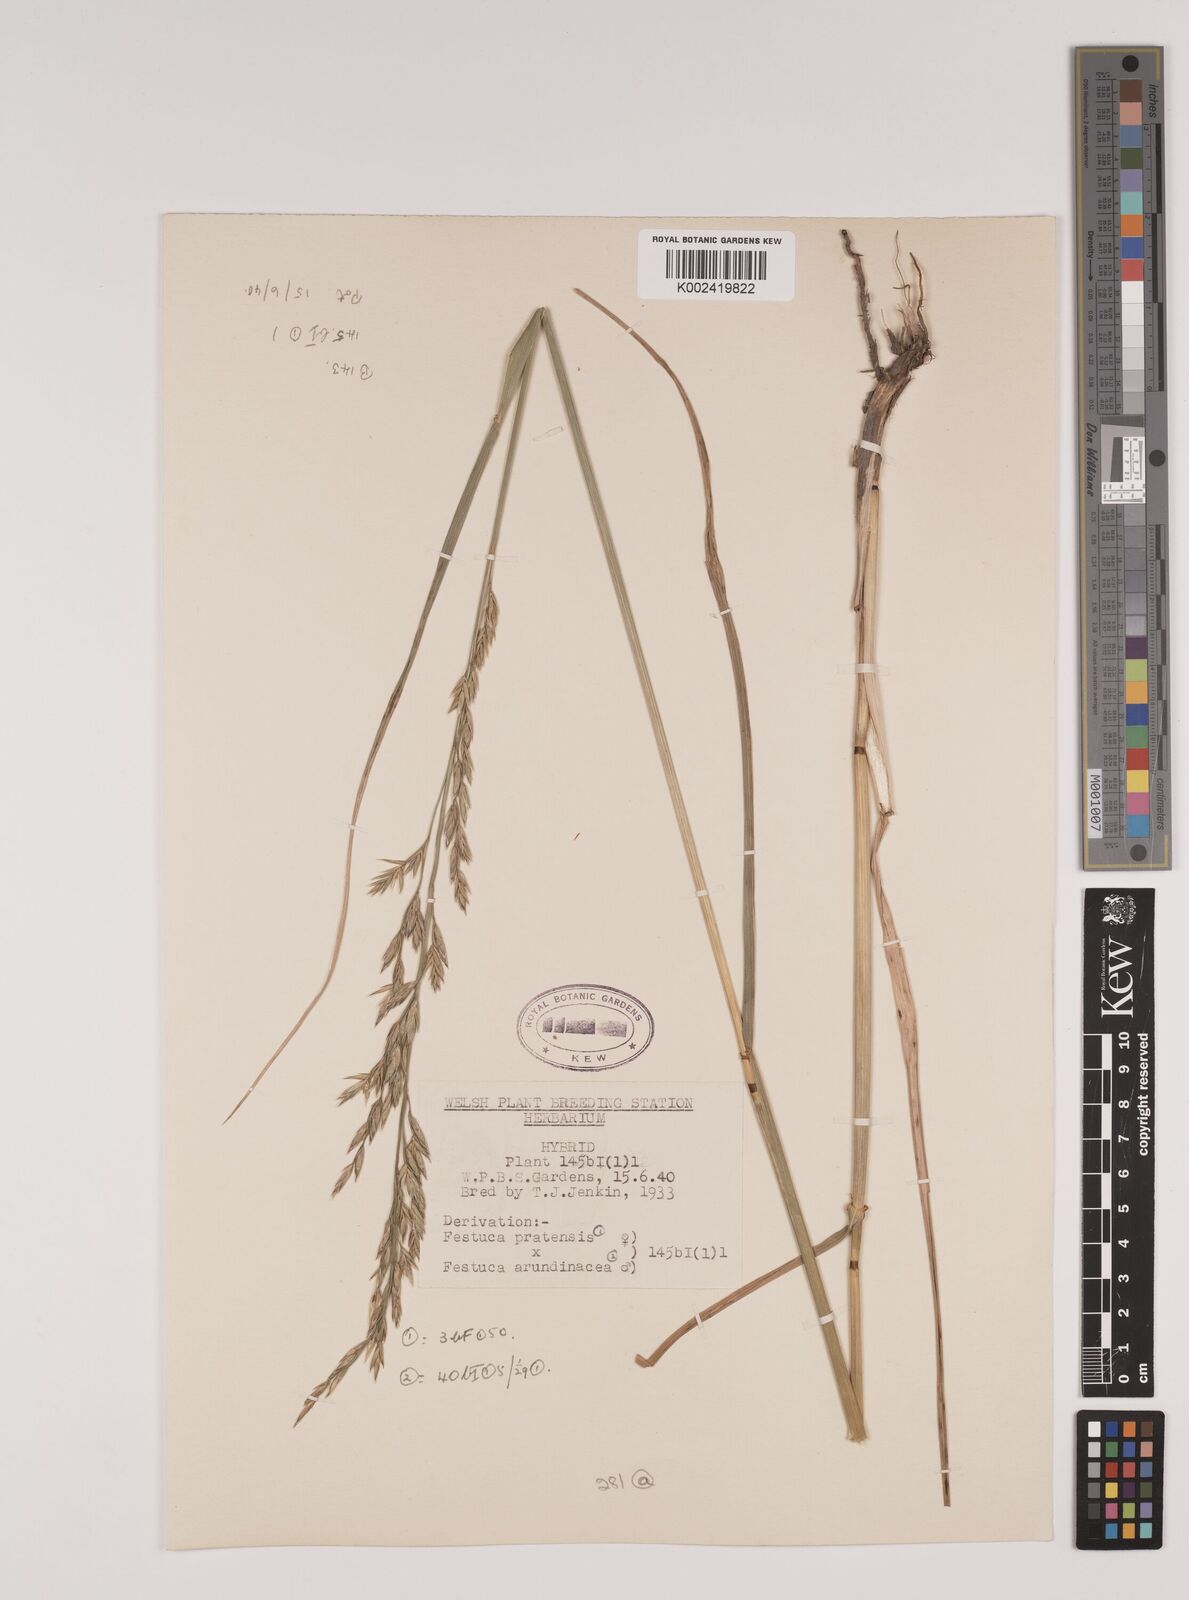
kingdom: Plantae
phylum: Tracheophyta
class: Liliopsida
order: Poales
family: Poaceae
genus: Festuca
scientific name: Festuca rubra
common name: Red fescue
